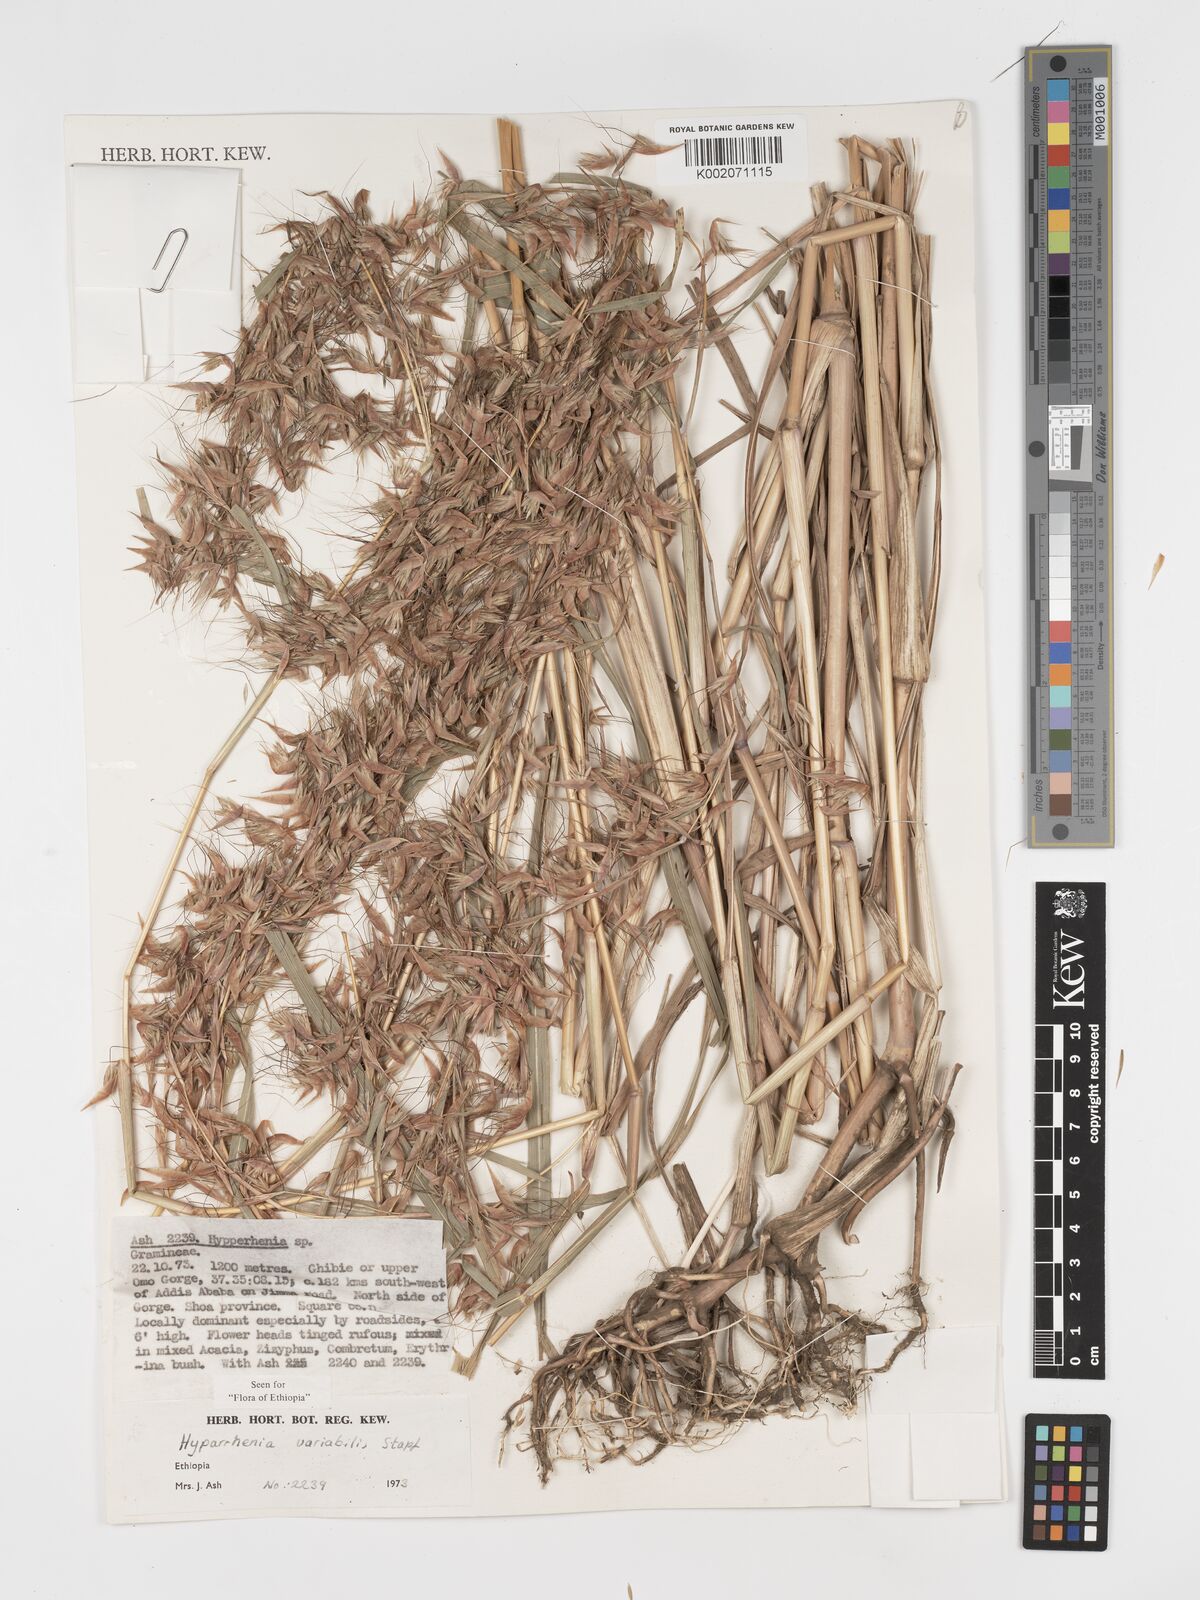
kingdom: Plantae
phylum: Tracheophyta
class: Liliopsida
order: Poales
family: Poaceae
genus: Hyparrhenia
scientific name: Hyparrhenia variabilis
